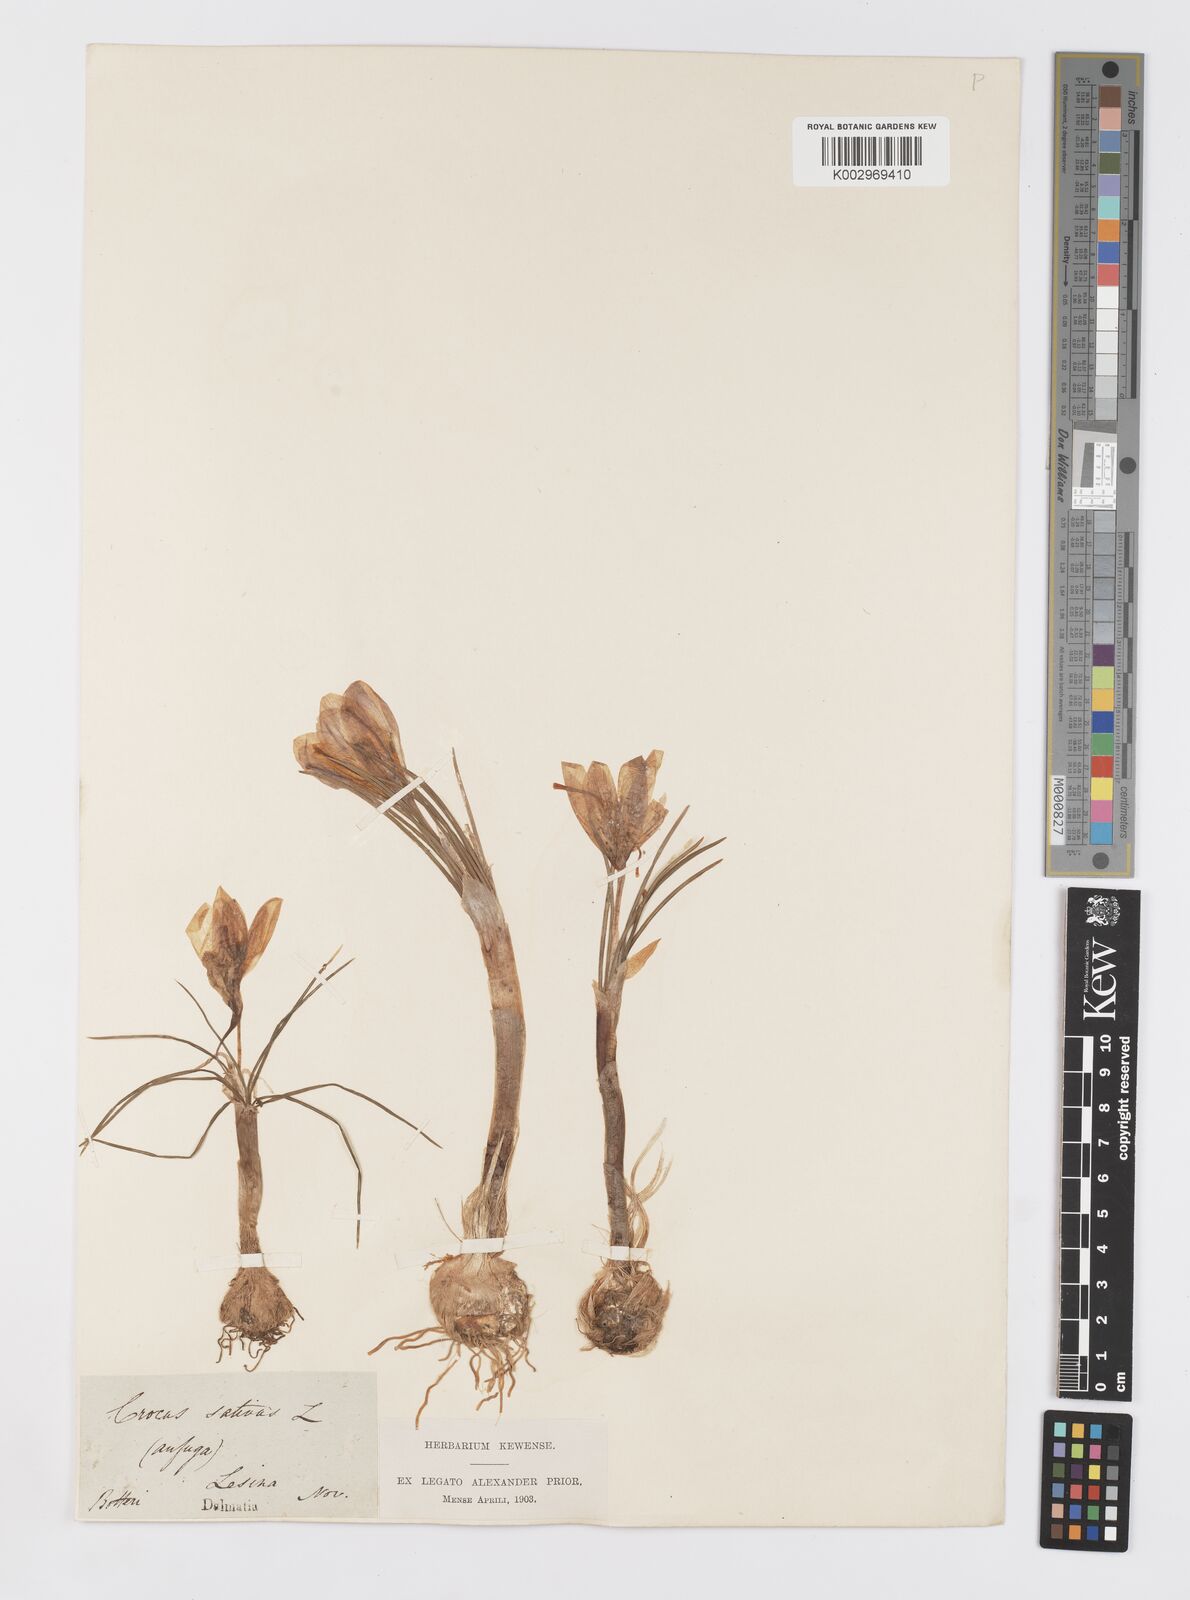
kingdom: Plantae
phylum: Tracheophyta
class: Liliopsida
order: Asparagales
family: Iridaceae
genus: Crocus
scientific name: Crocus sativus
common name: Saffron crocus
